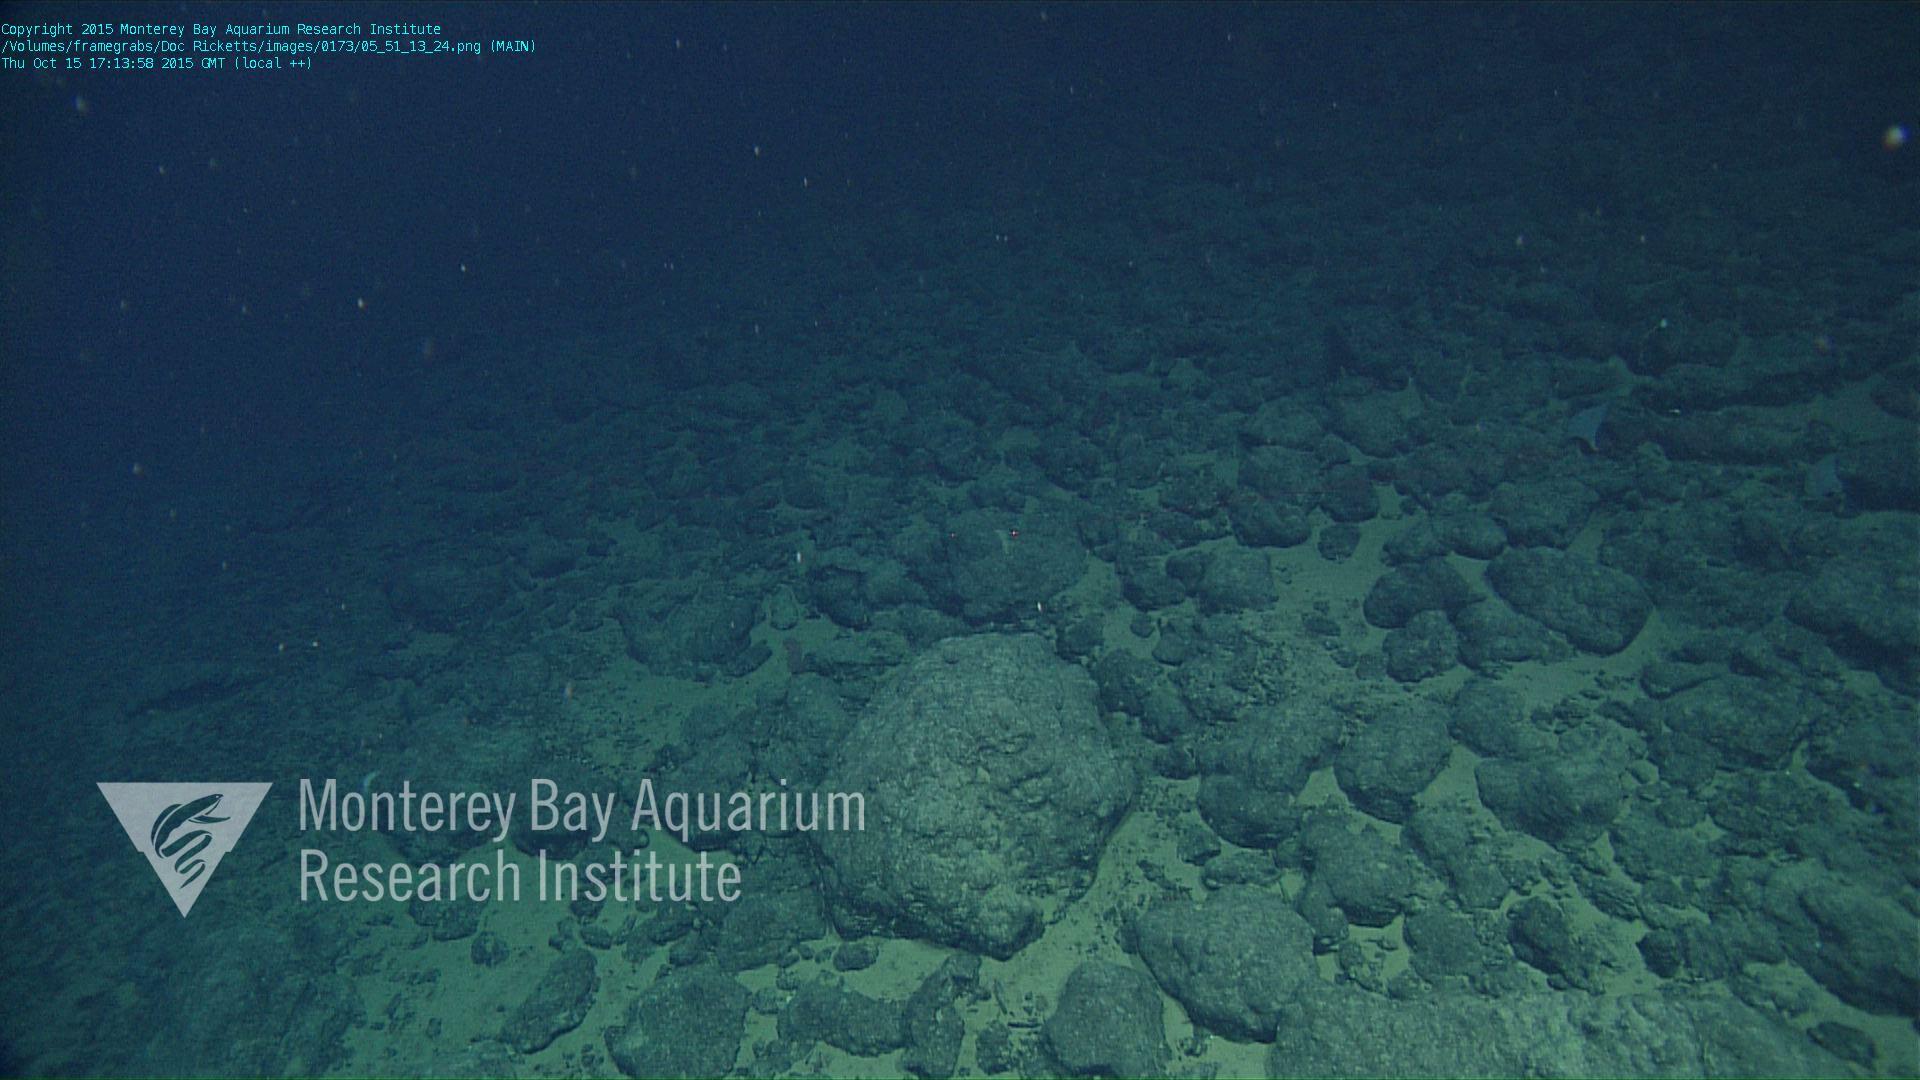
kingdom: Animalia
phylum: Porifera
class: Demospongiae
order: Poecilosclerida
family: Cladorhizidae
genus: Asbestopluma
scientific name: Asbestopluma
